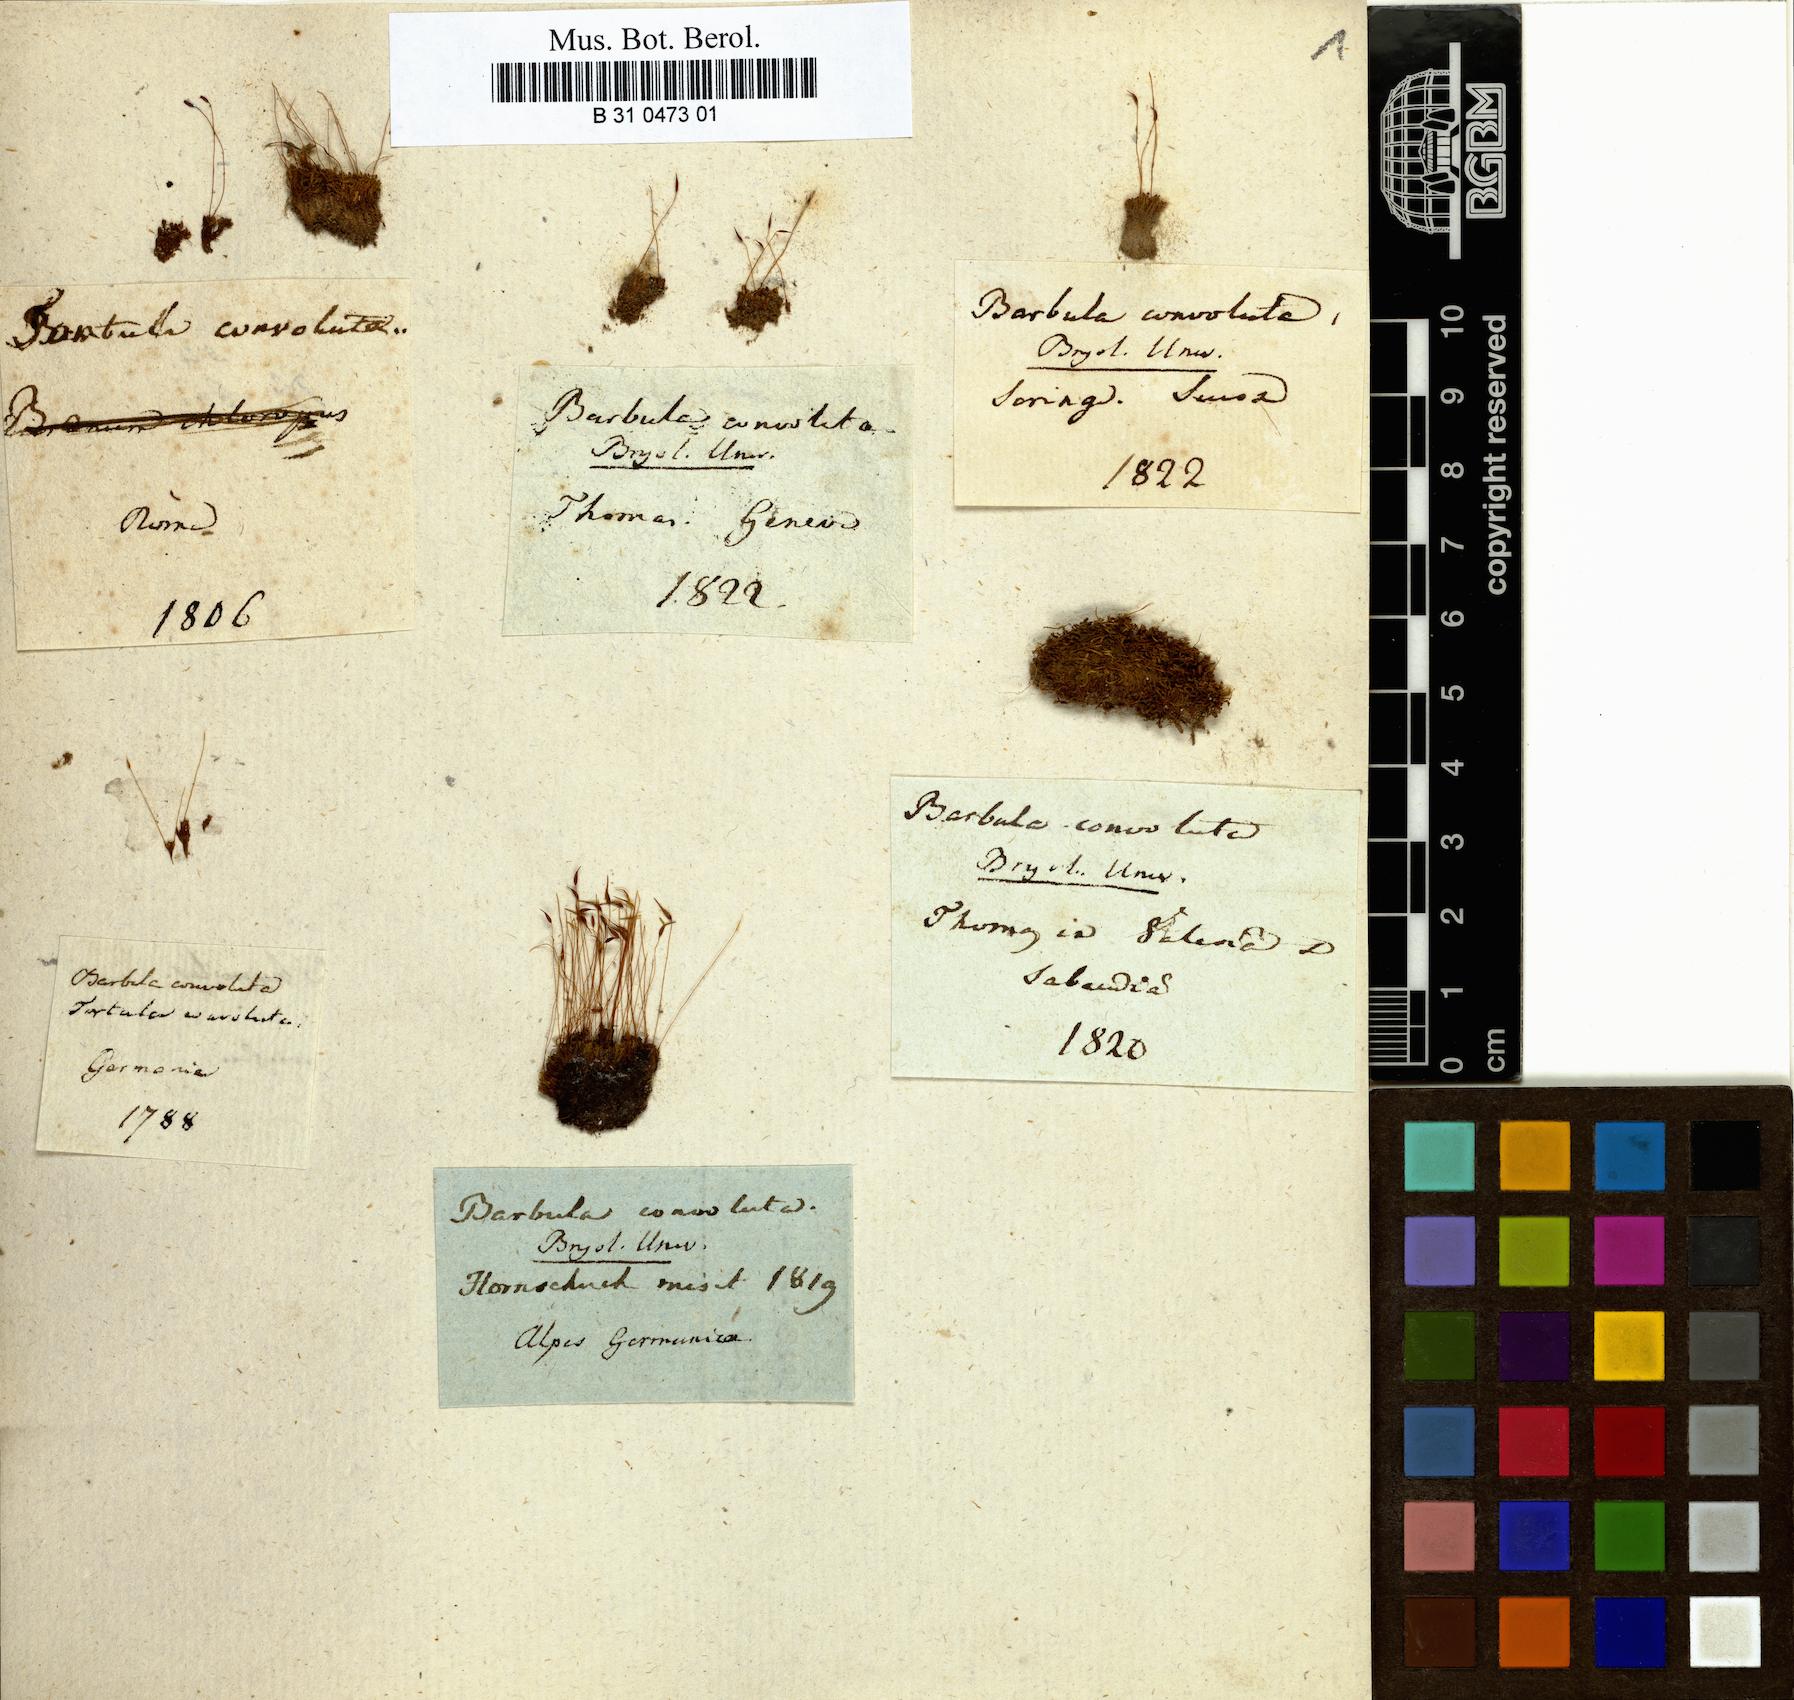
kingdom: Plantae
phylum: Bryophyta
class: Bryopsida
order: Pottiales
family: Pottiaceae
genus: Streblotrichum
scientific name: Streblotrichum convolutum
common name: Lesser bird's-claw beard-moss
